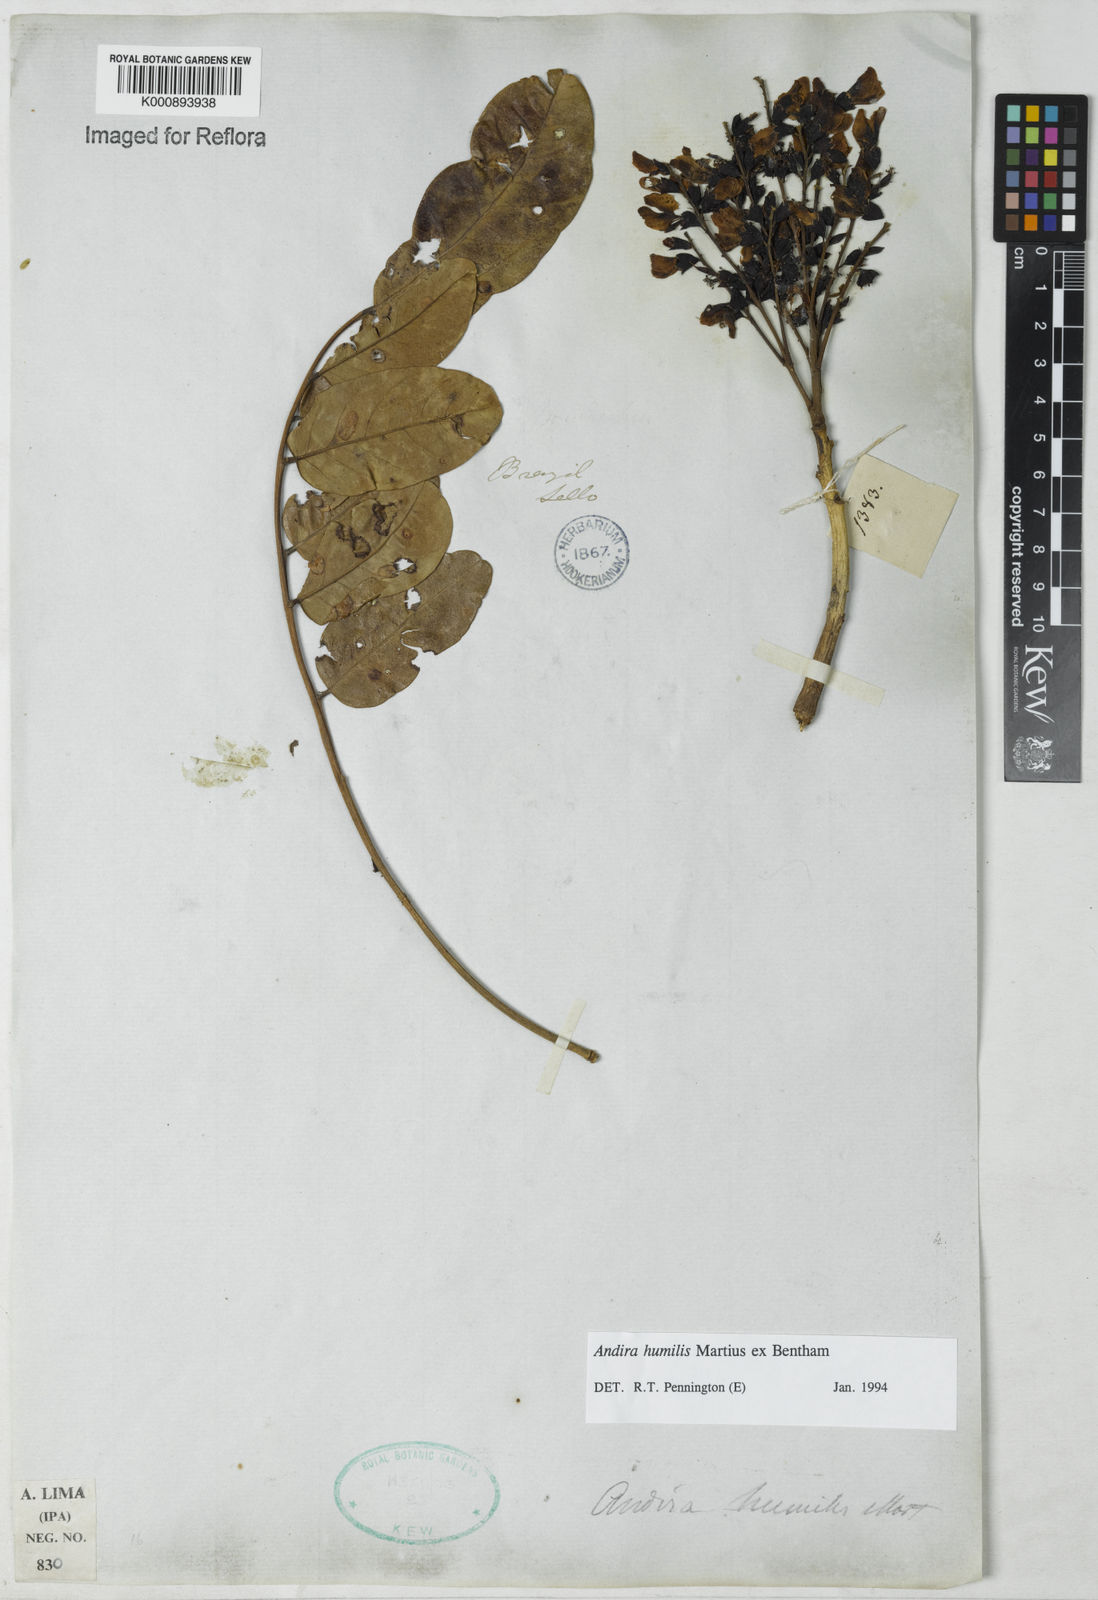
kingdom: Plantae
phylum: Tracheophyta
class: Magnoliopsida
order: Fabales
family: Fabaceae
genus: Andira
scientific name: Andira humilis
